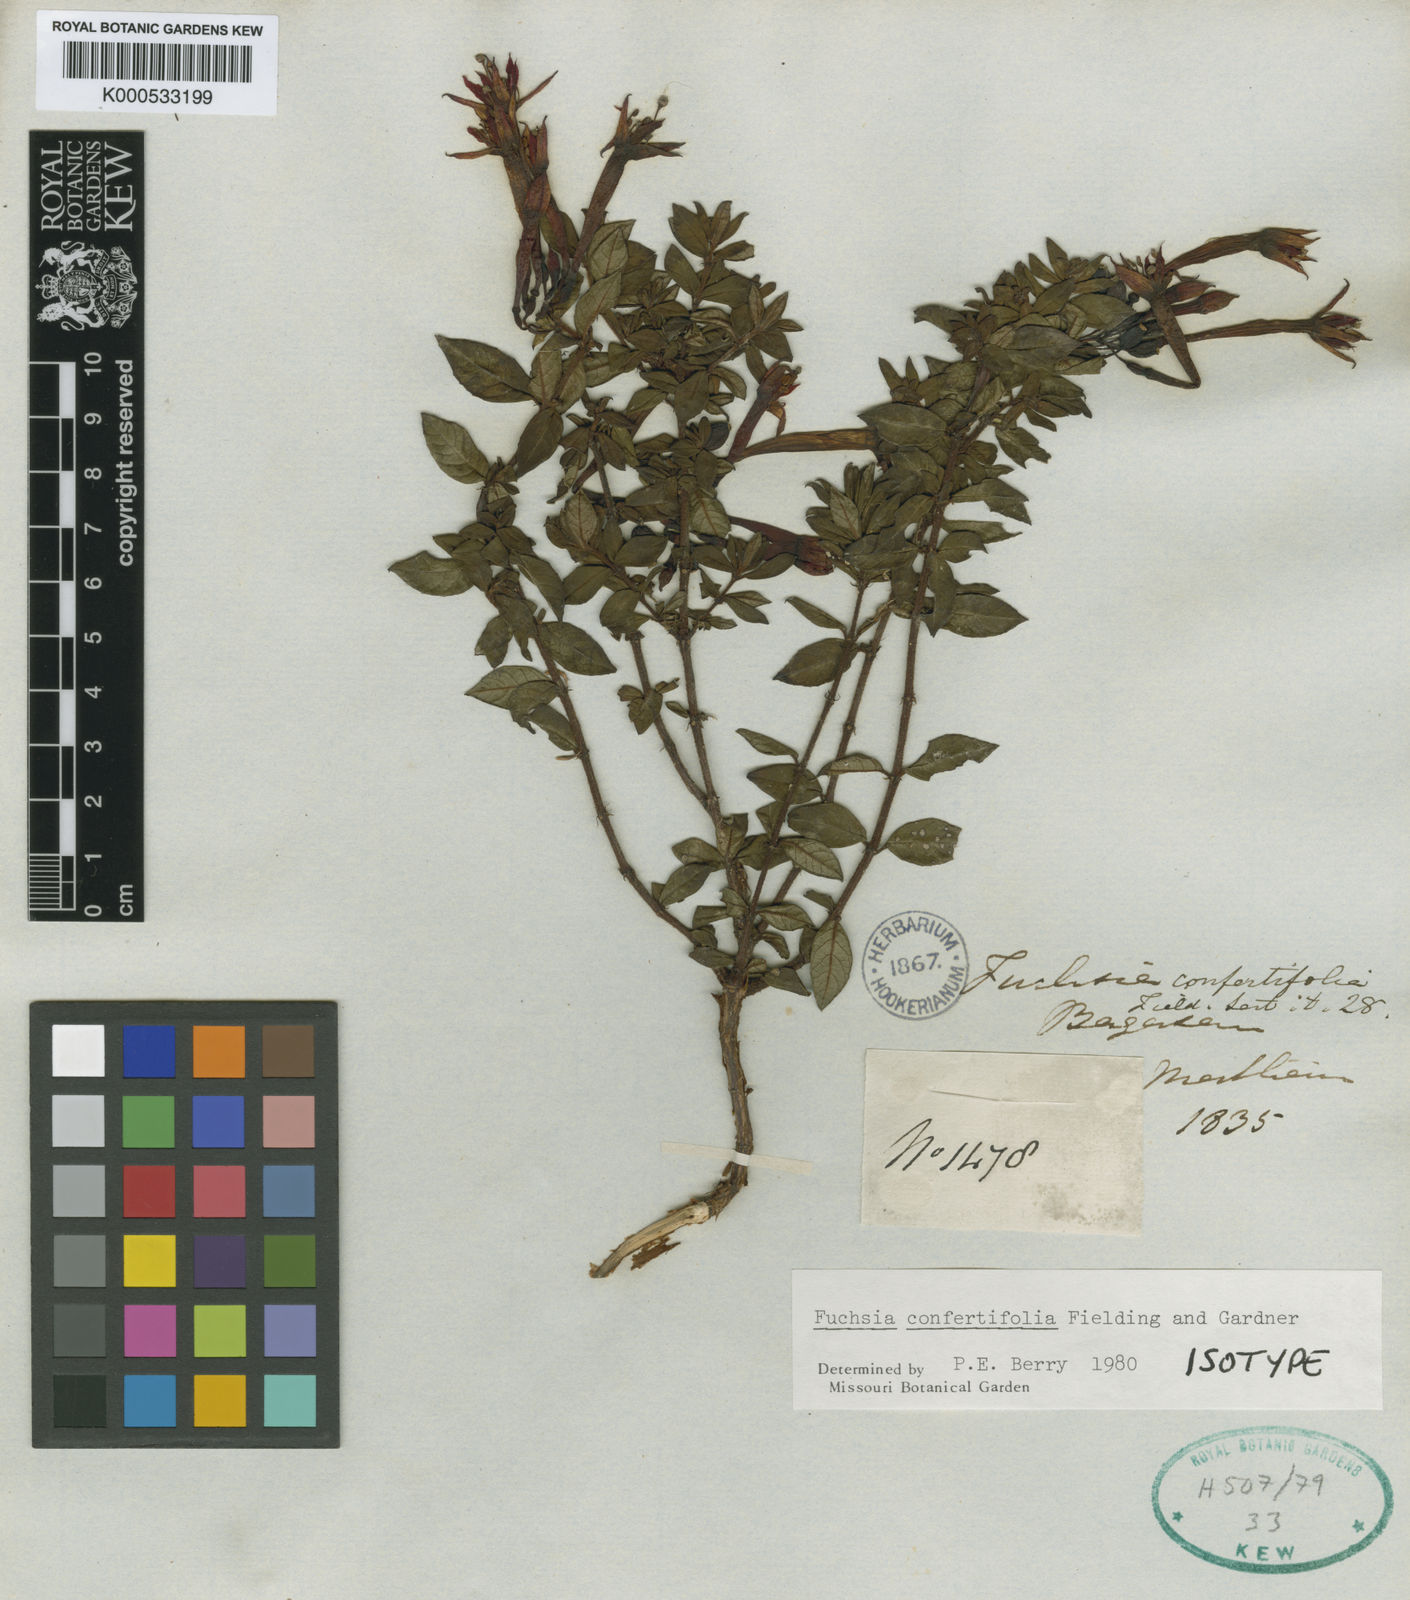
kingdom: Plantae
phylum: Tracheophyta
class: Magnoliopsida
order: Myrtales
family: Onagraceae
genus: Fuchsia
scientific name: Fuchsia confertifolia
